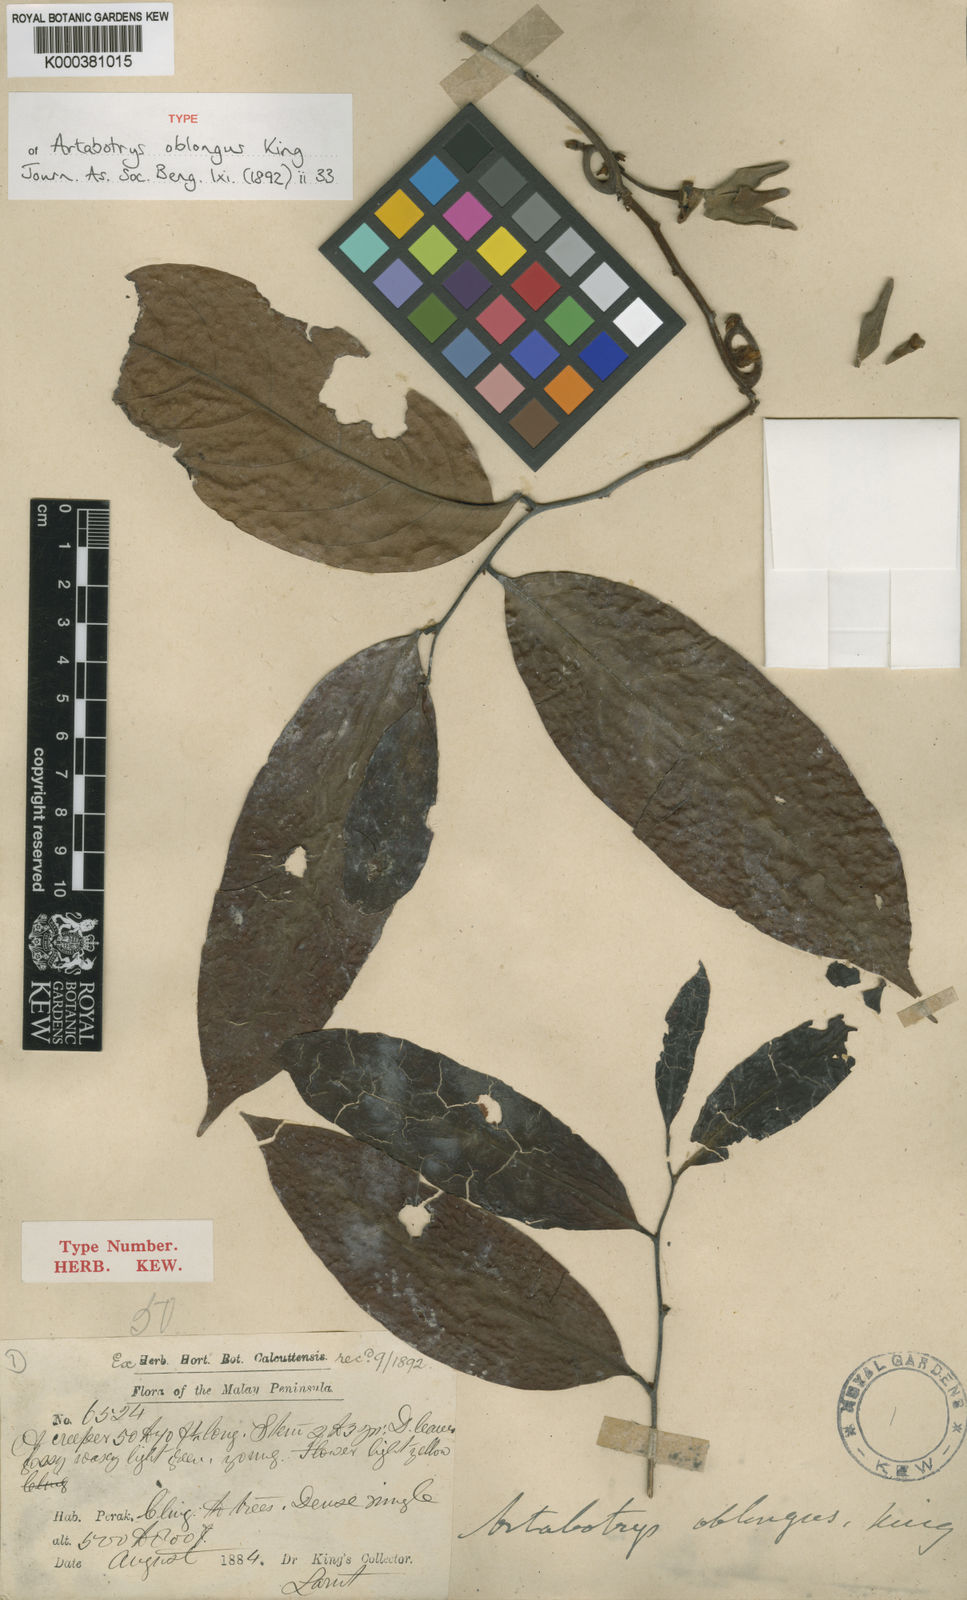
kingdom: Plantae
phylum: Tracheophyta
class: Magnoliopsida
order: Magnoliales
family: Annonaceae
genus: Artabotrys
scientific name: Artabotrys oblongus
